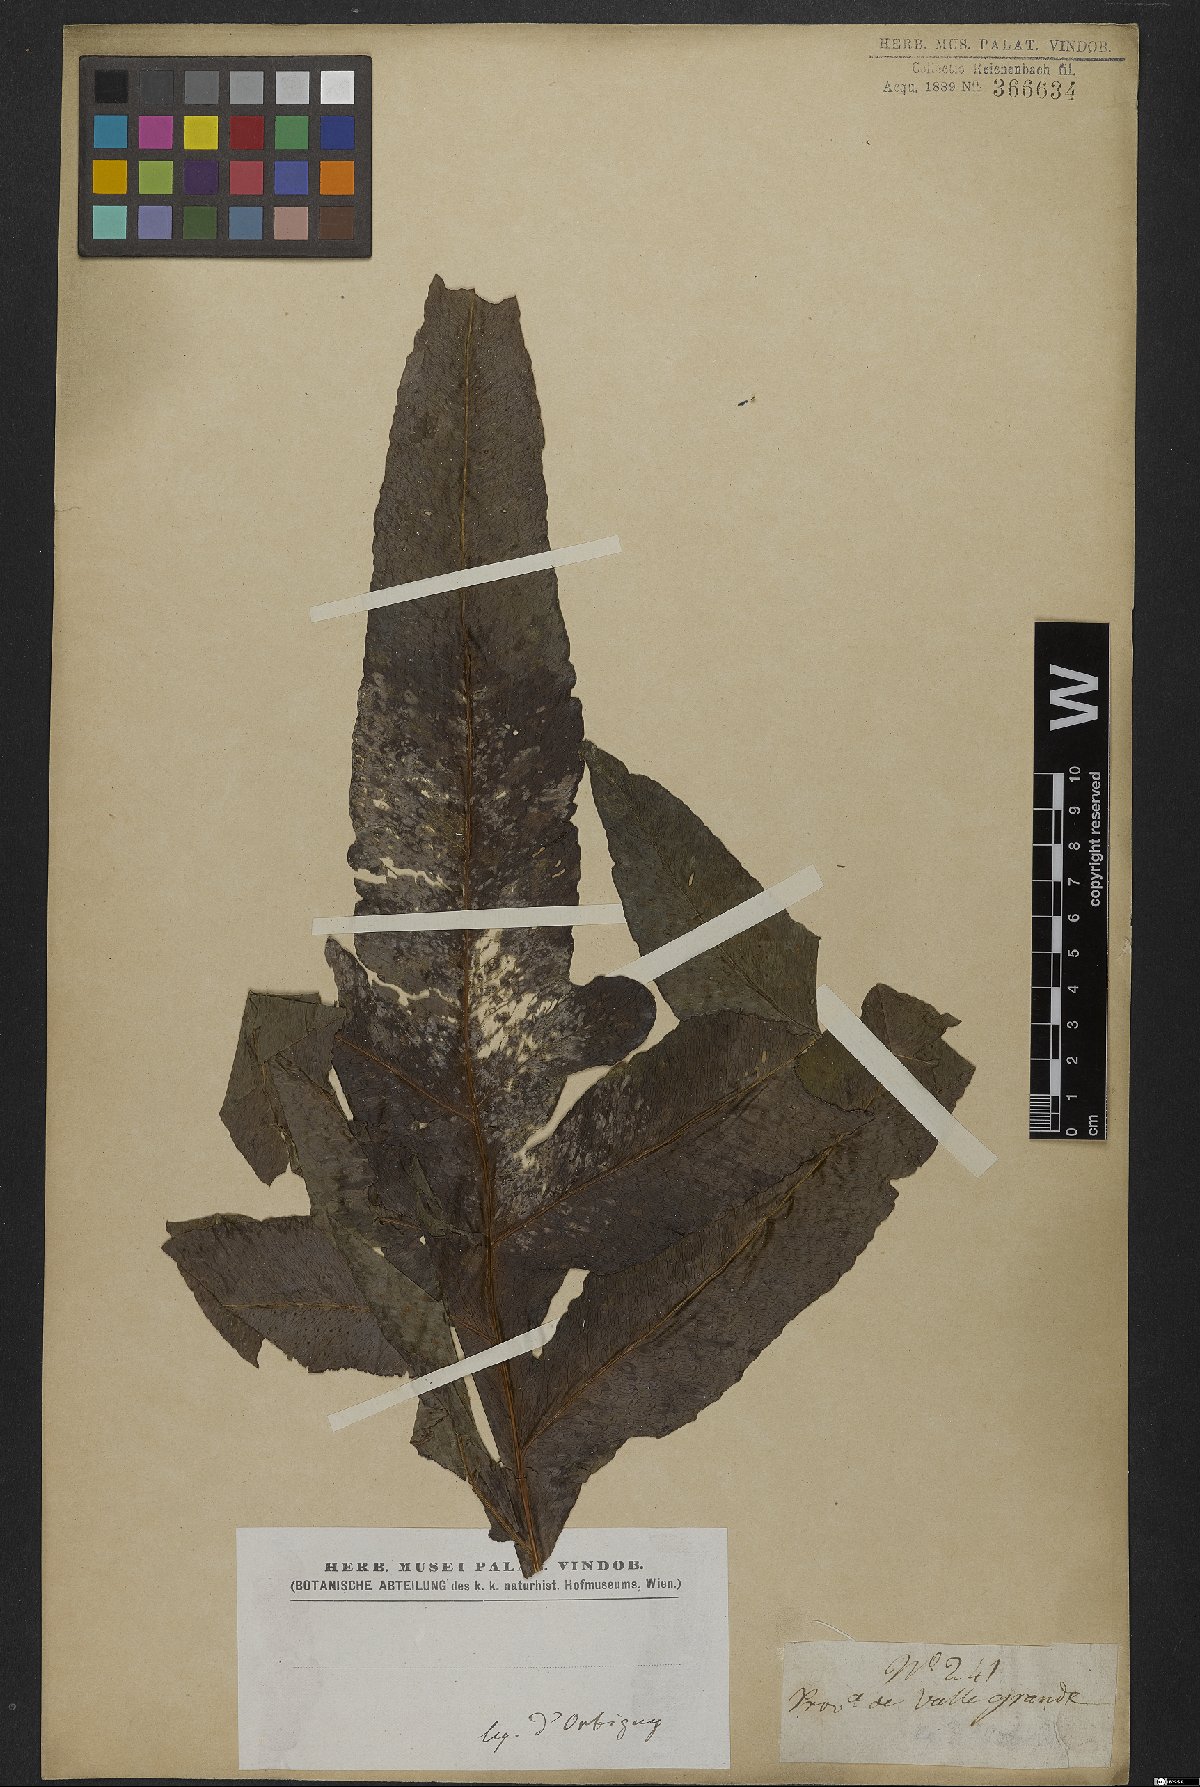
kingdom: Plantae
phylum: Tracheophyta
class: Polypodiopsida
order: Polypodiales
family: Polypodiaceae
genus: Phlebodium
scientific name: Phlebodium decumanum
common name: Golden polypod
